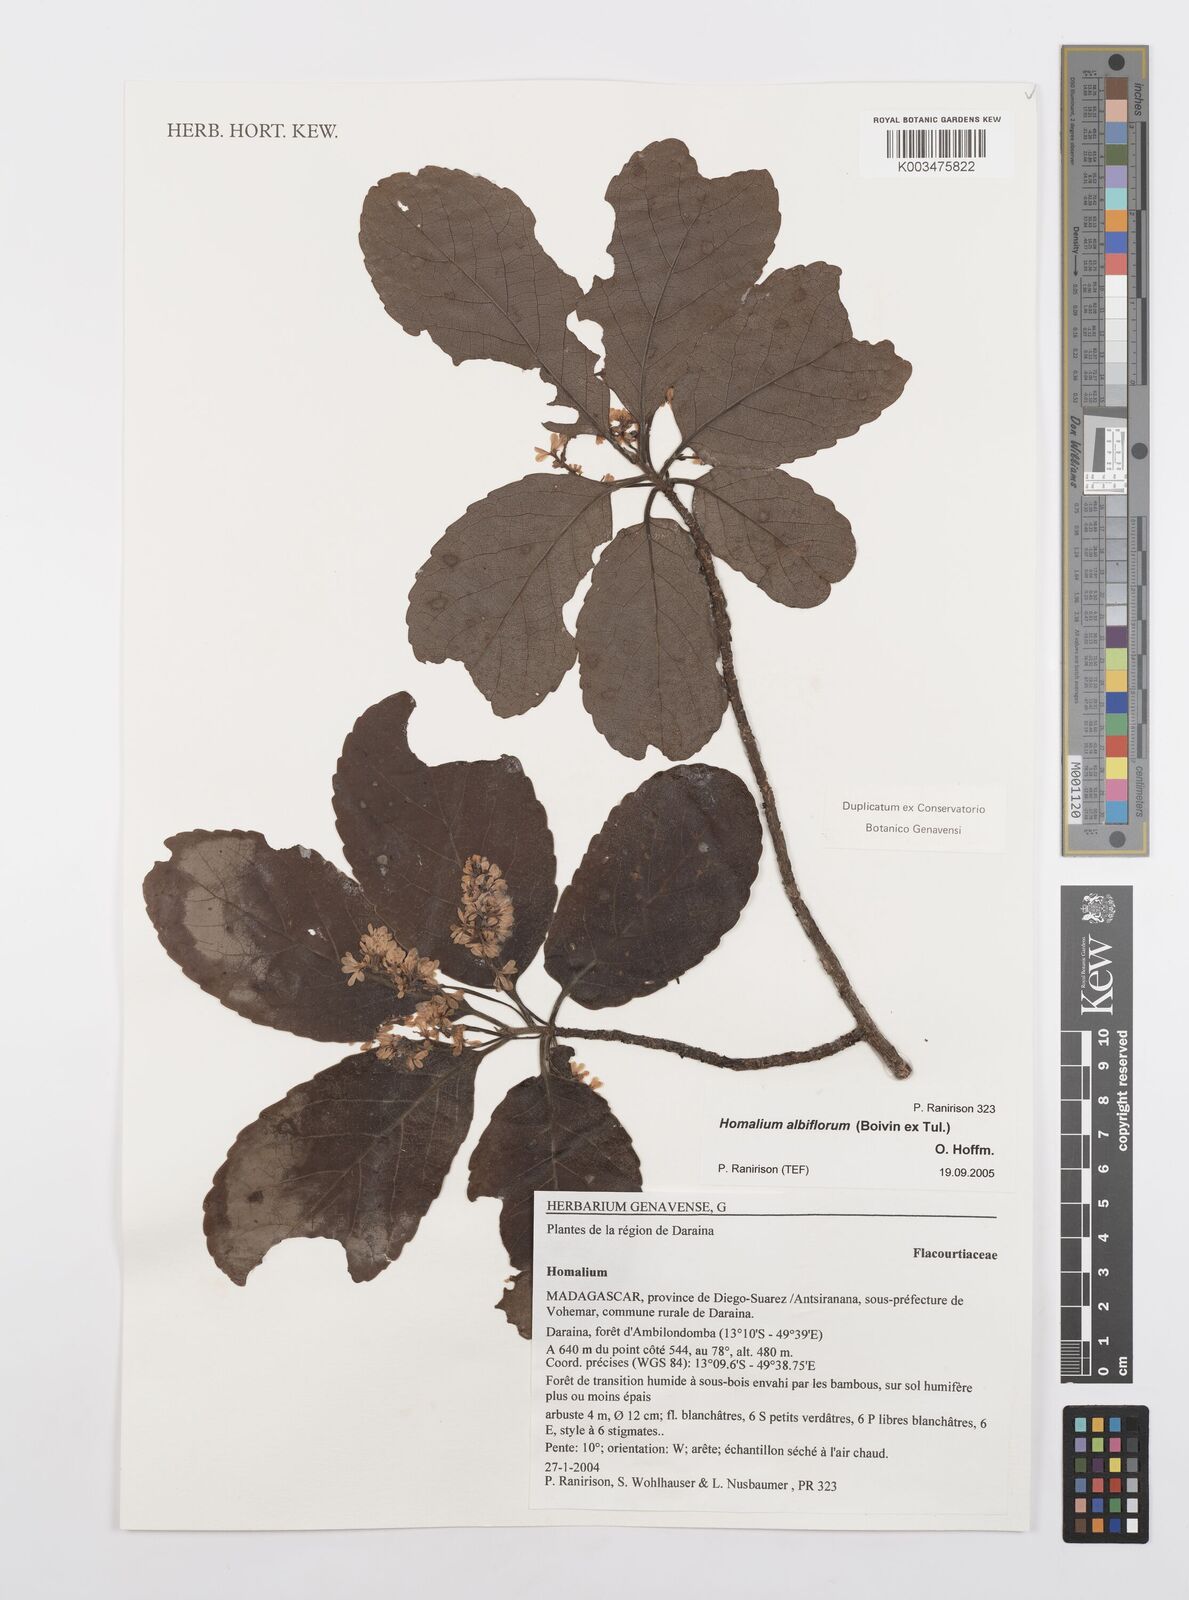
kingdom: Plantae
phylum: Tracheophyta
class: Magnoliopsida
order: Malpighiales
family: Salicaceae
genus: Homalium
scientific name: Homalium albiflorum
